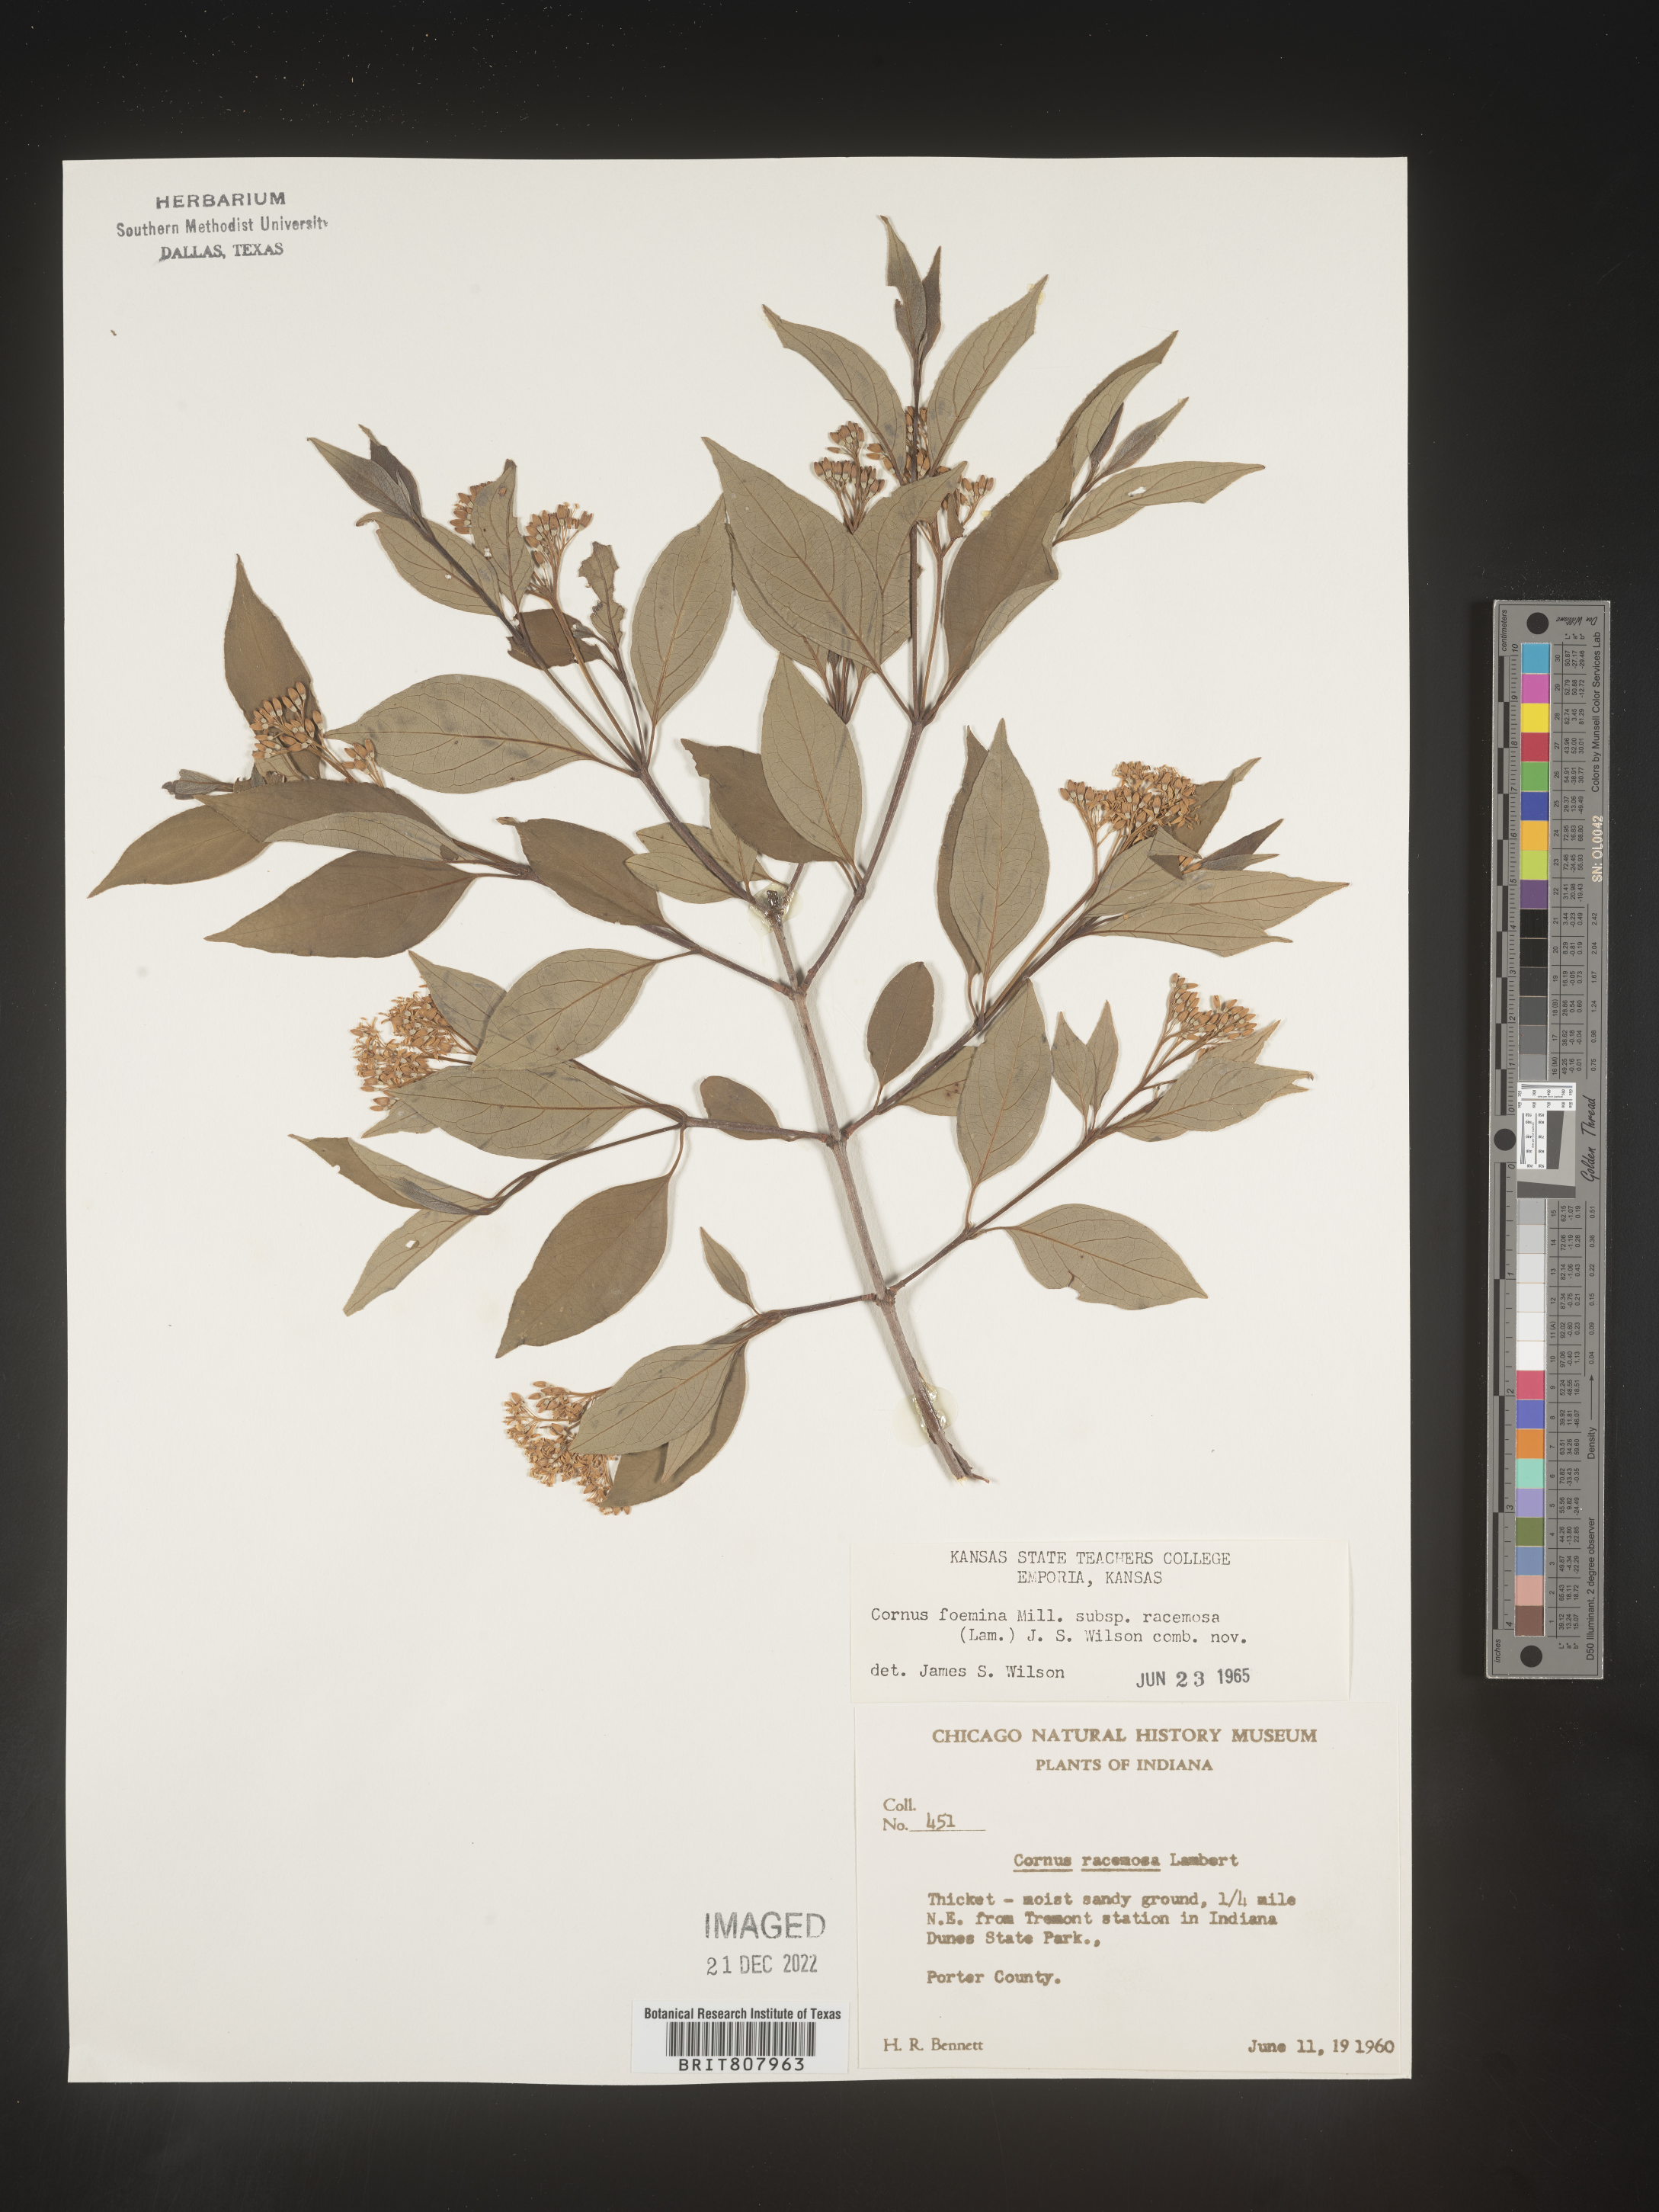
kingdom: Plantae
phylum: Tracheophyta
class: Magnoliopsida
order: Cornales
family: Cornaceae
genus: Cornus
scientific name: Cornus racemosa
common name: Panicled dogwood
